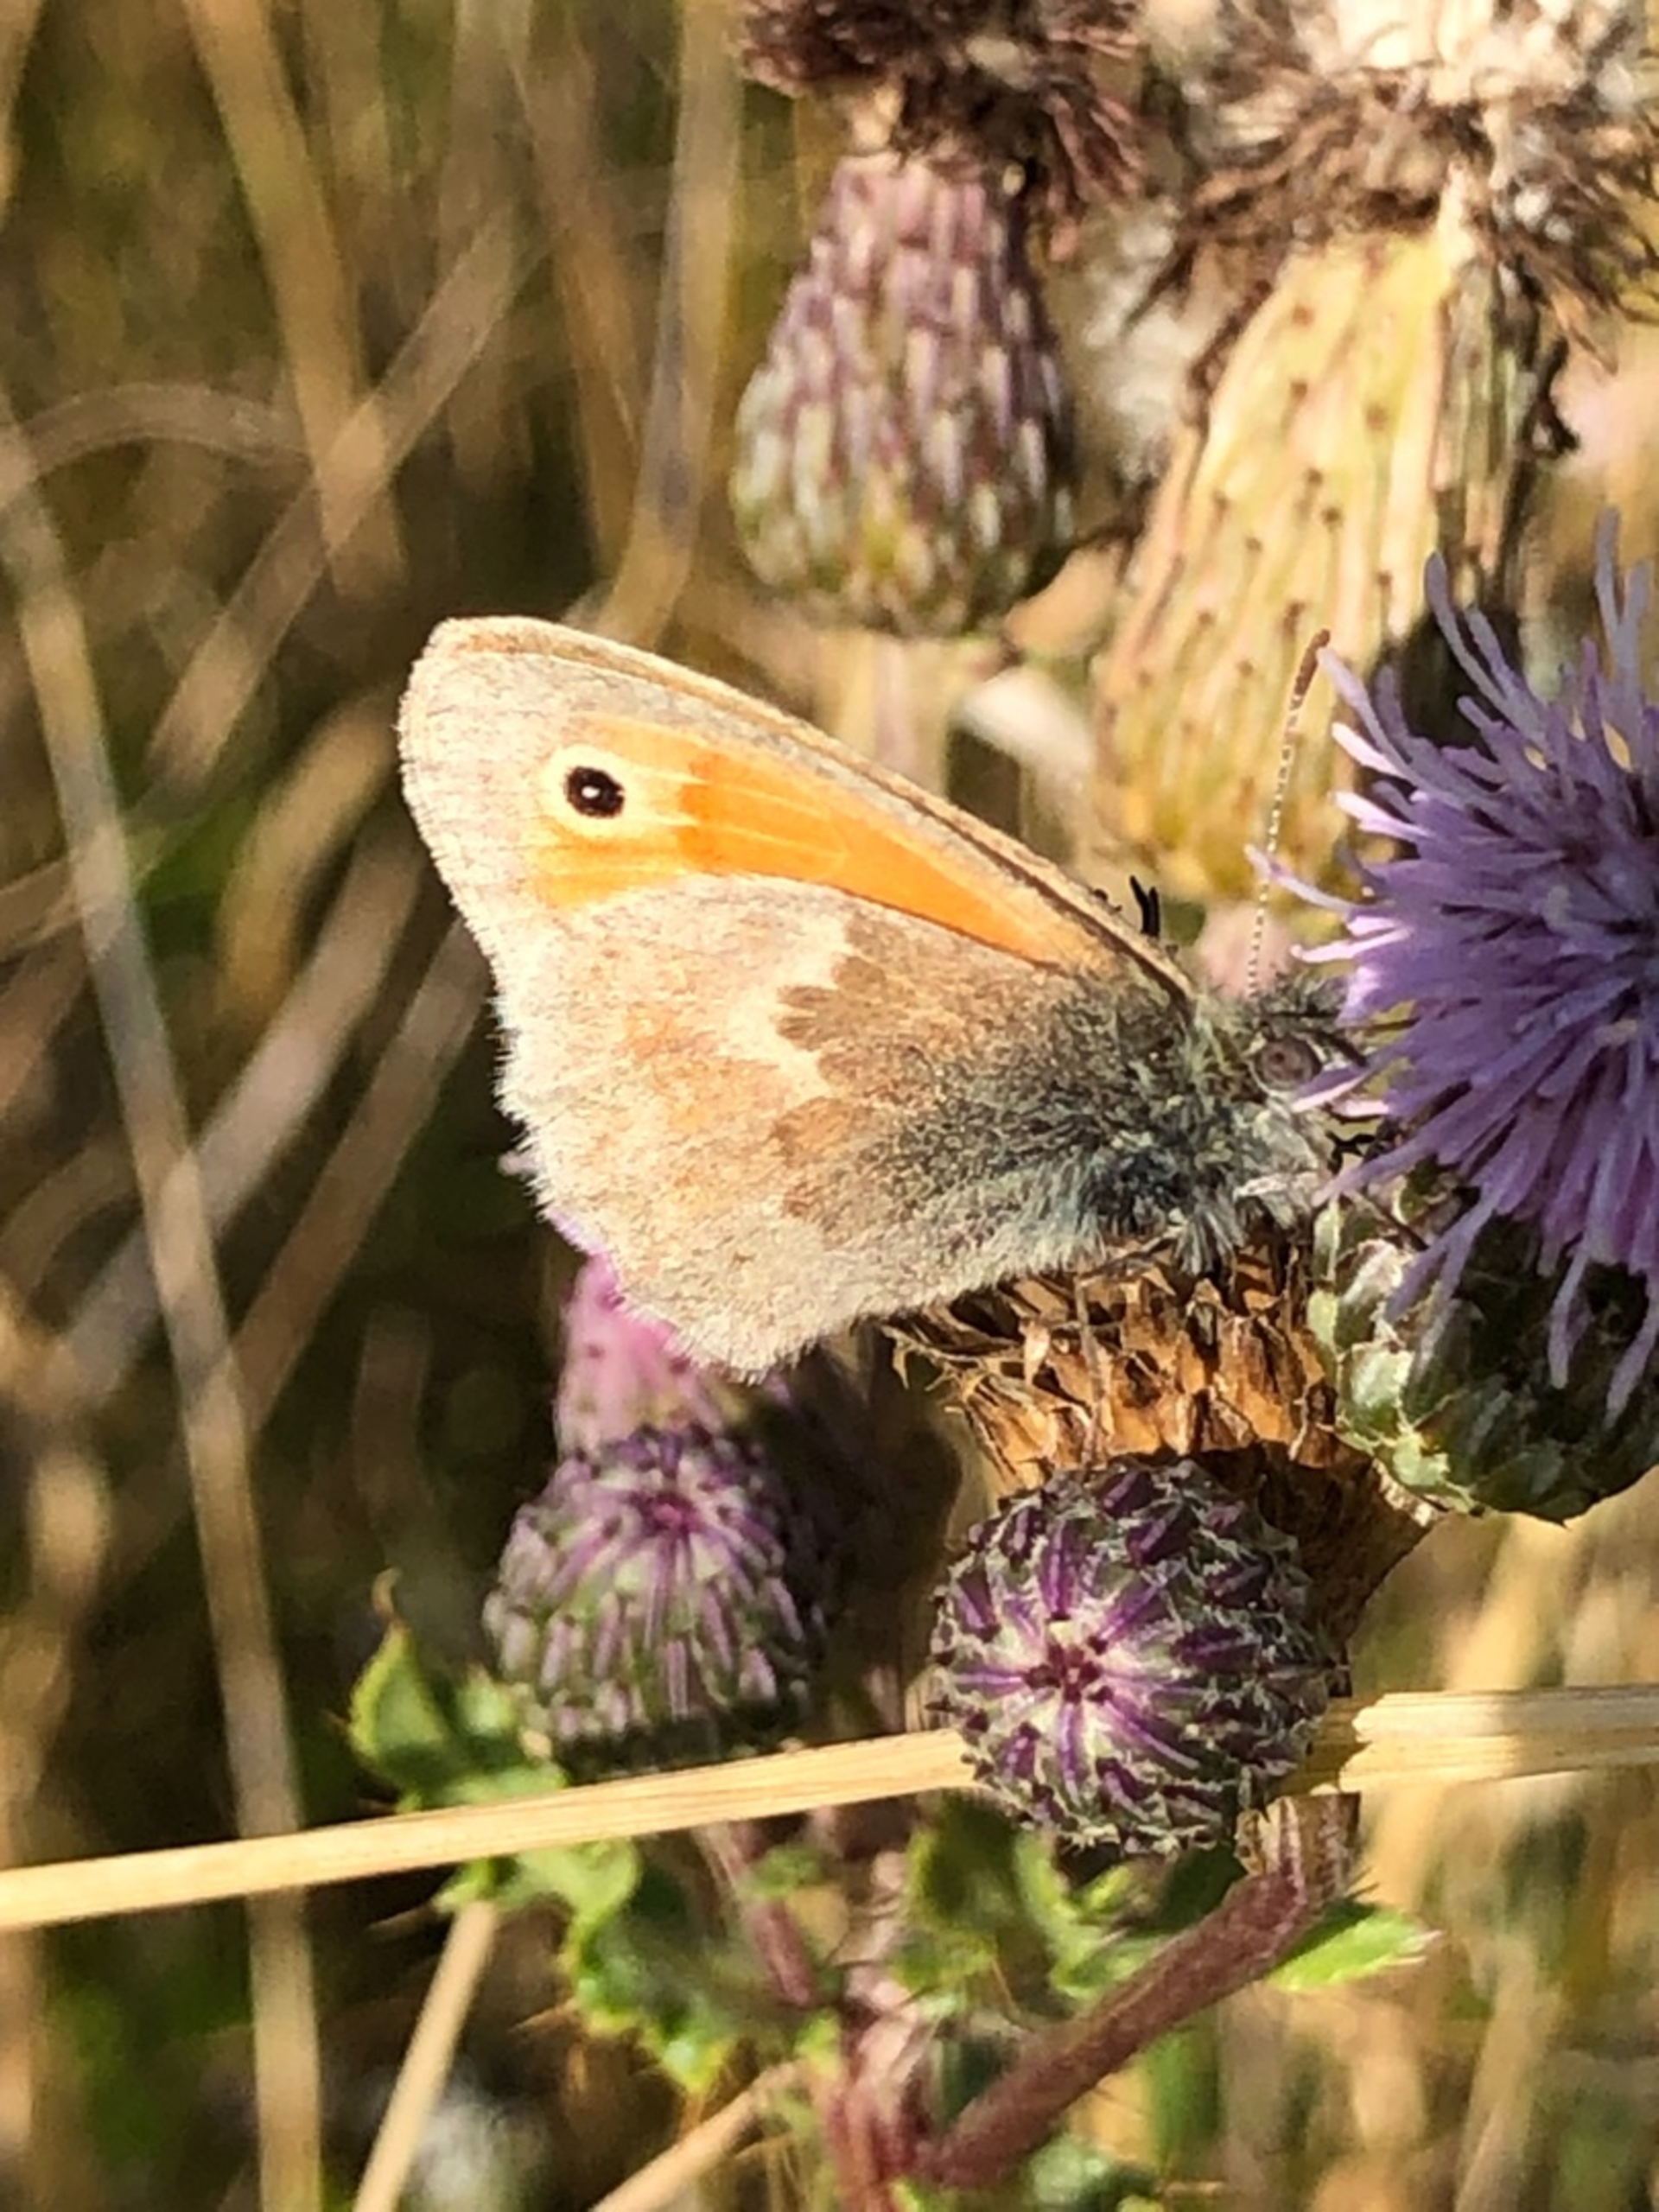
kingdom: Animalia
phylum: Arthropoda
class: Insecta
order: Lepidoptera
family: Nymphalidae
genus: Coenonympha
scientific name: Coenonympha pamphilus
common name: Okkergul randøje
